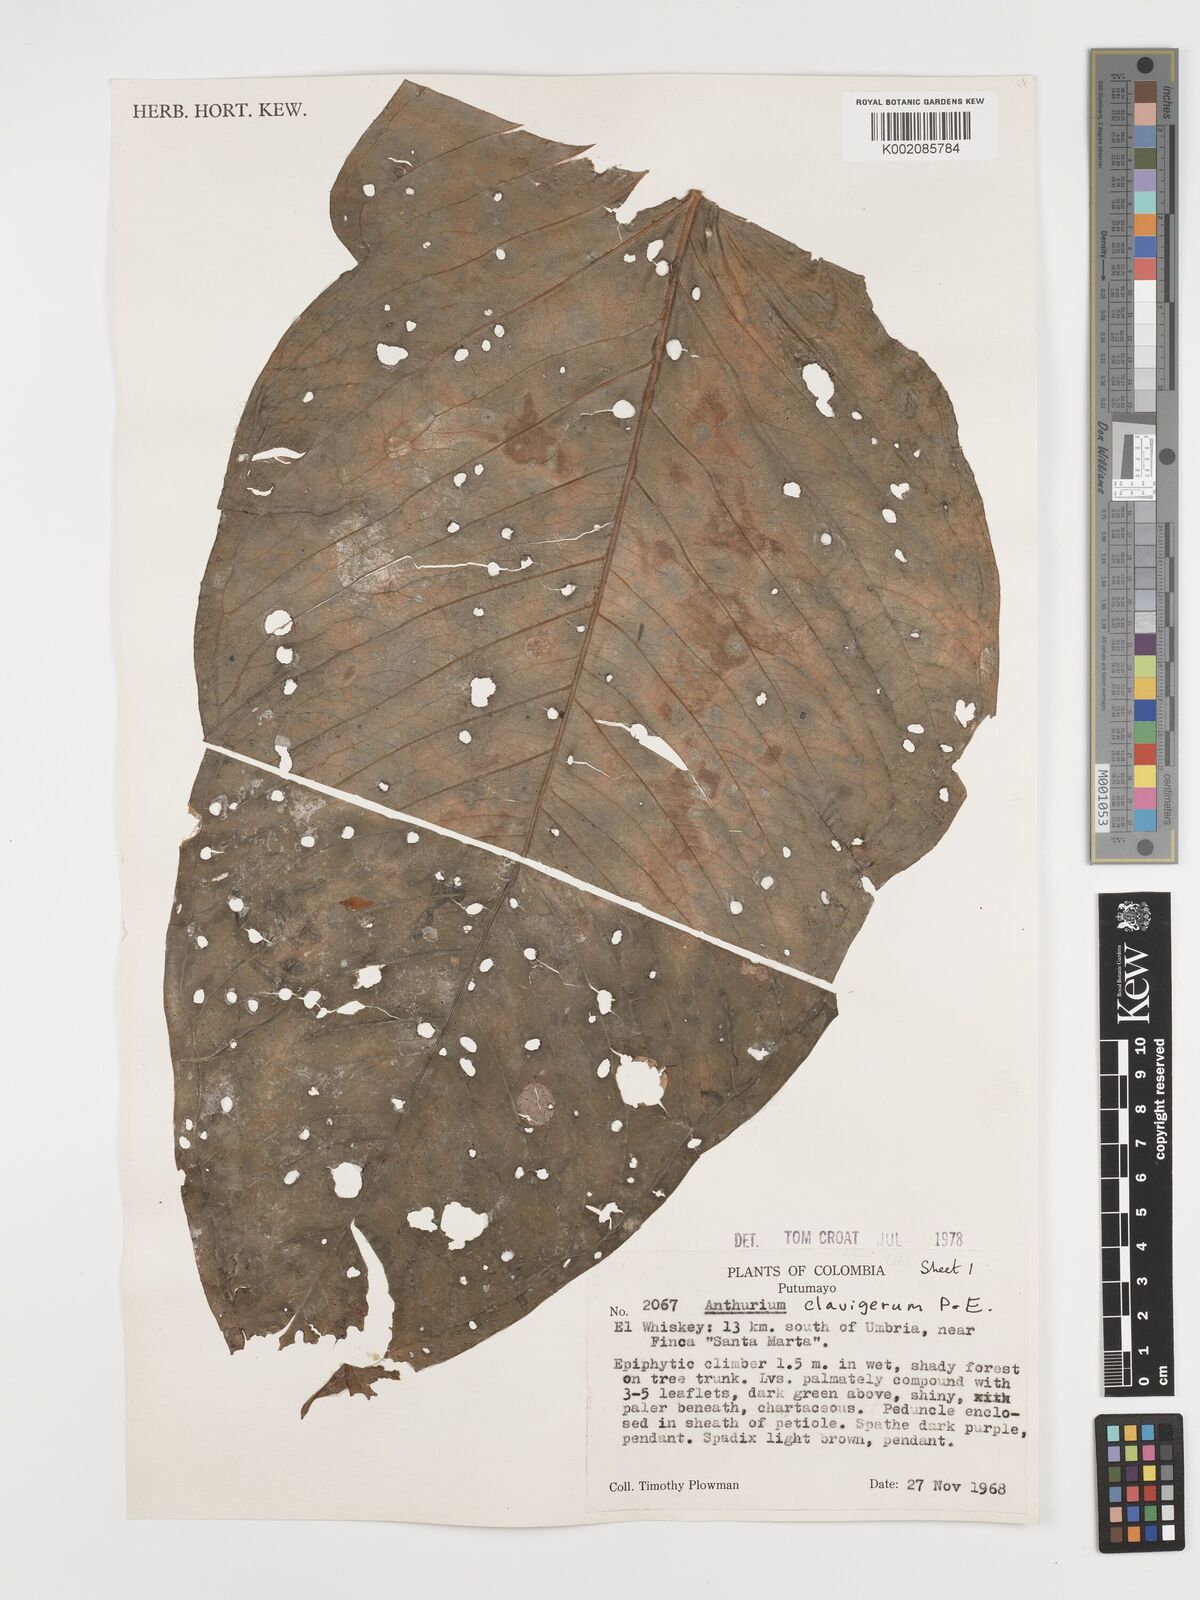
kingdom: Plantae
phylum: Tracheophyta
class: Liliopsida
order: Alismatales
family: Araceae
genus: Anthurium
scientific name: Anthurium clavigerum
